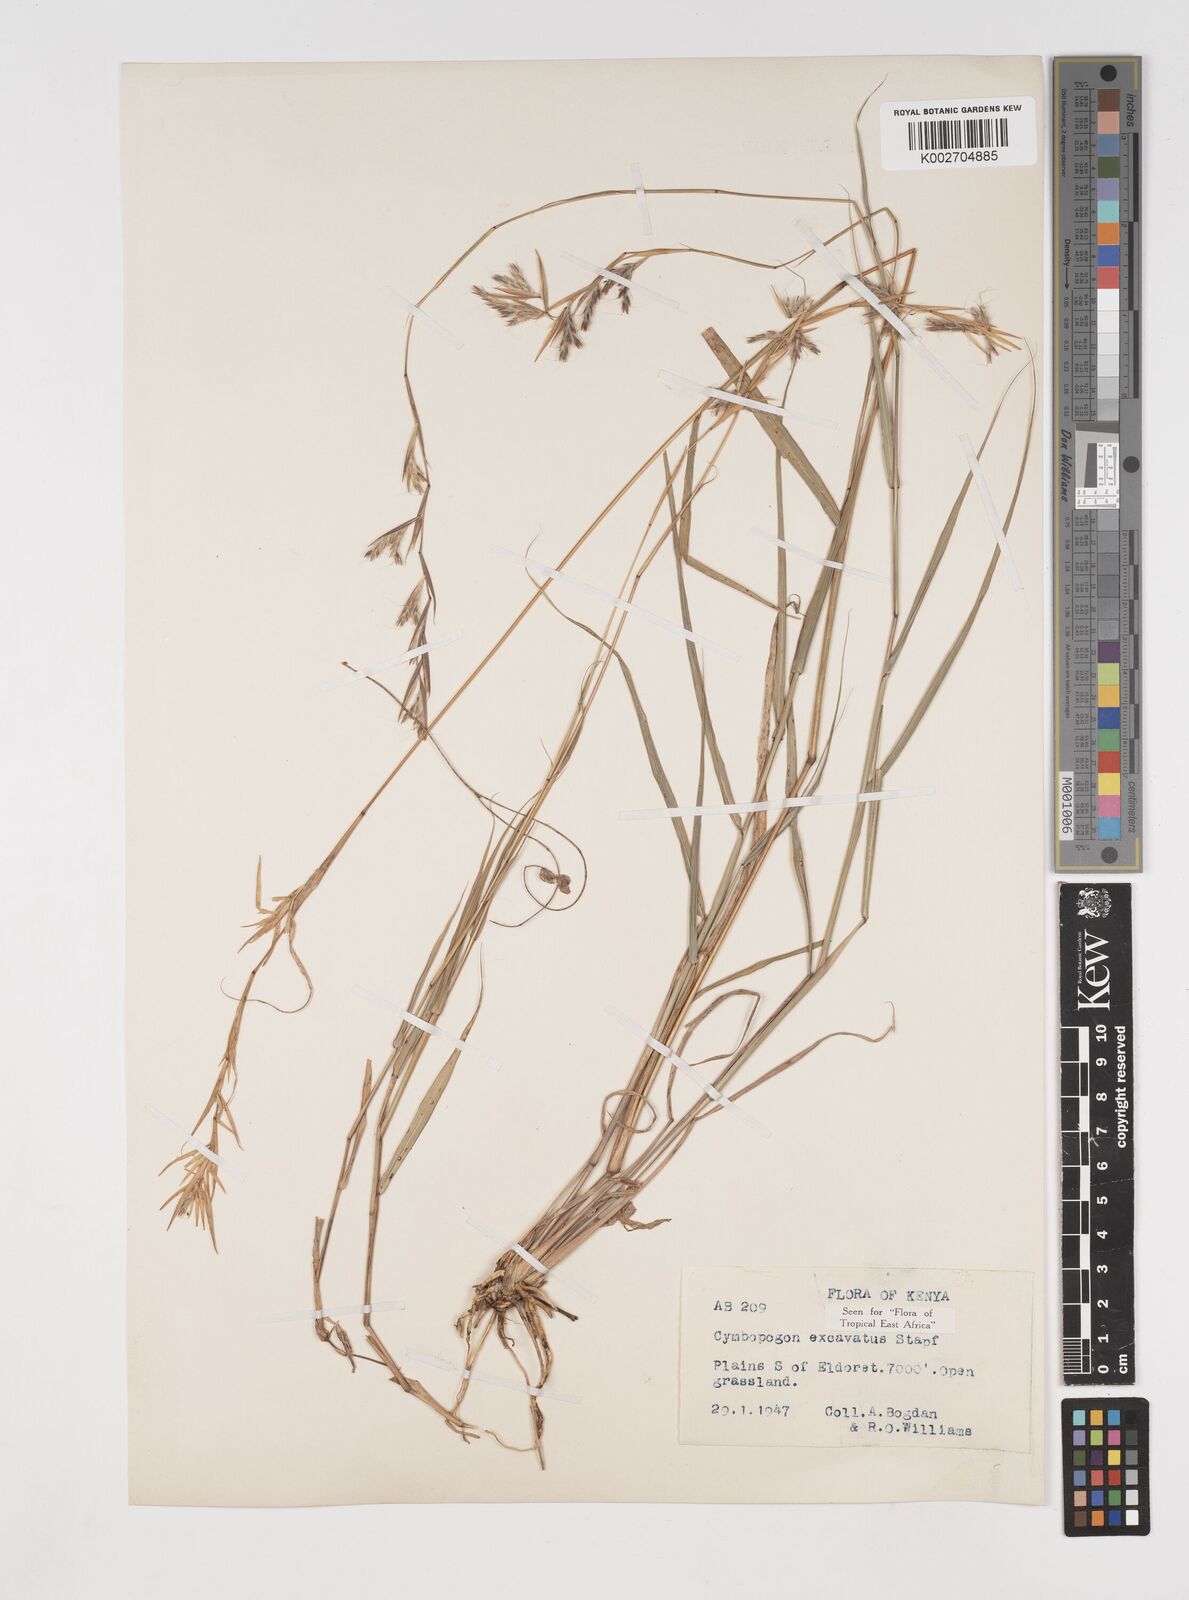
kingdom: Plantae
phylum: Tracheophyta
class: Liliopsida
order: Poales
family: Poaceae
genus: Cymbopogon
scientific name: Cymbopogon caesius
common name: Kachi grass
